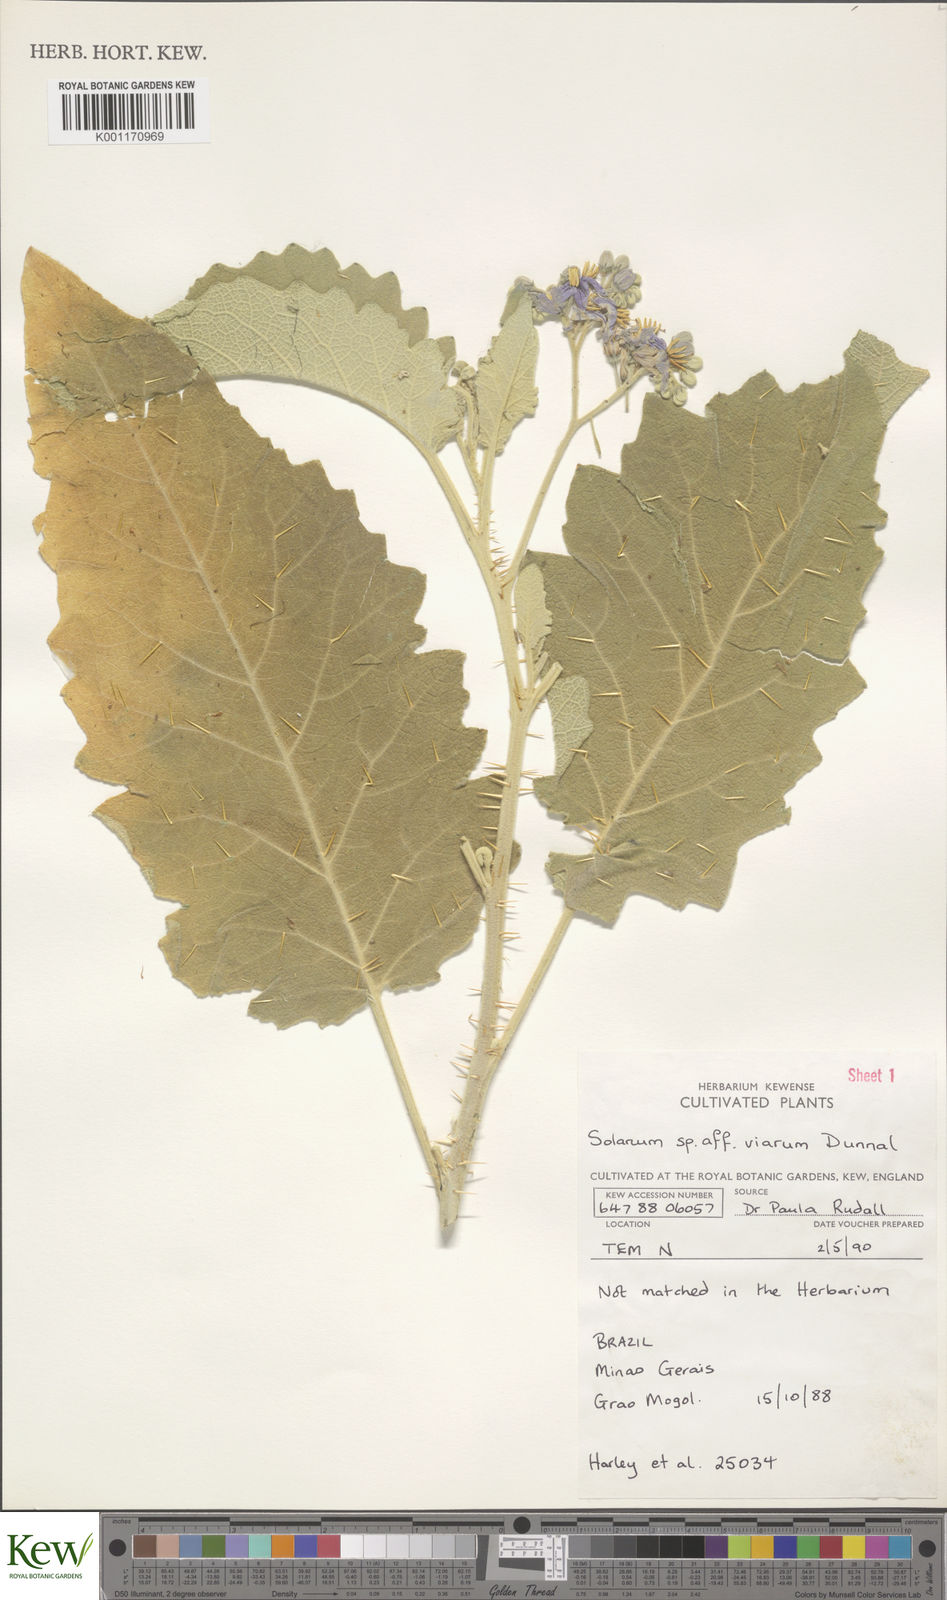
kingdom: Plantae
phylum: Tracheophyta
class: Magnoliopsida
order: Solanales
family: Solanaceae
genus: Solanum
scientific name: Solanum viarum
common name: Tropical soda apple
